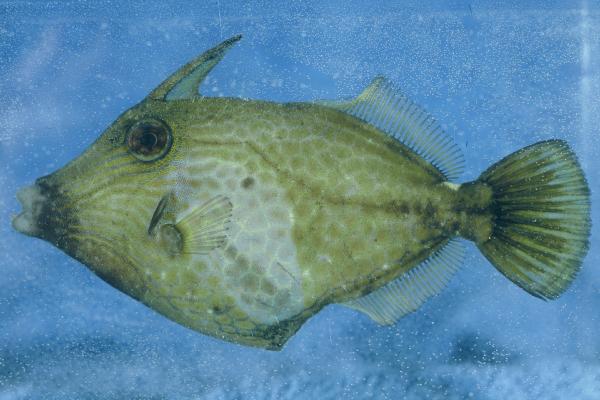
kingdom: Animalia
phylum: Chordata
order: Tetraodontiformes
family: Monacanthidae
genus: Cantherhines
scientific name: Cantherhines pardalis
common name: Honeycomb filefish
